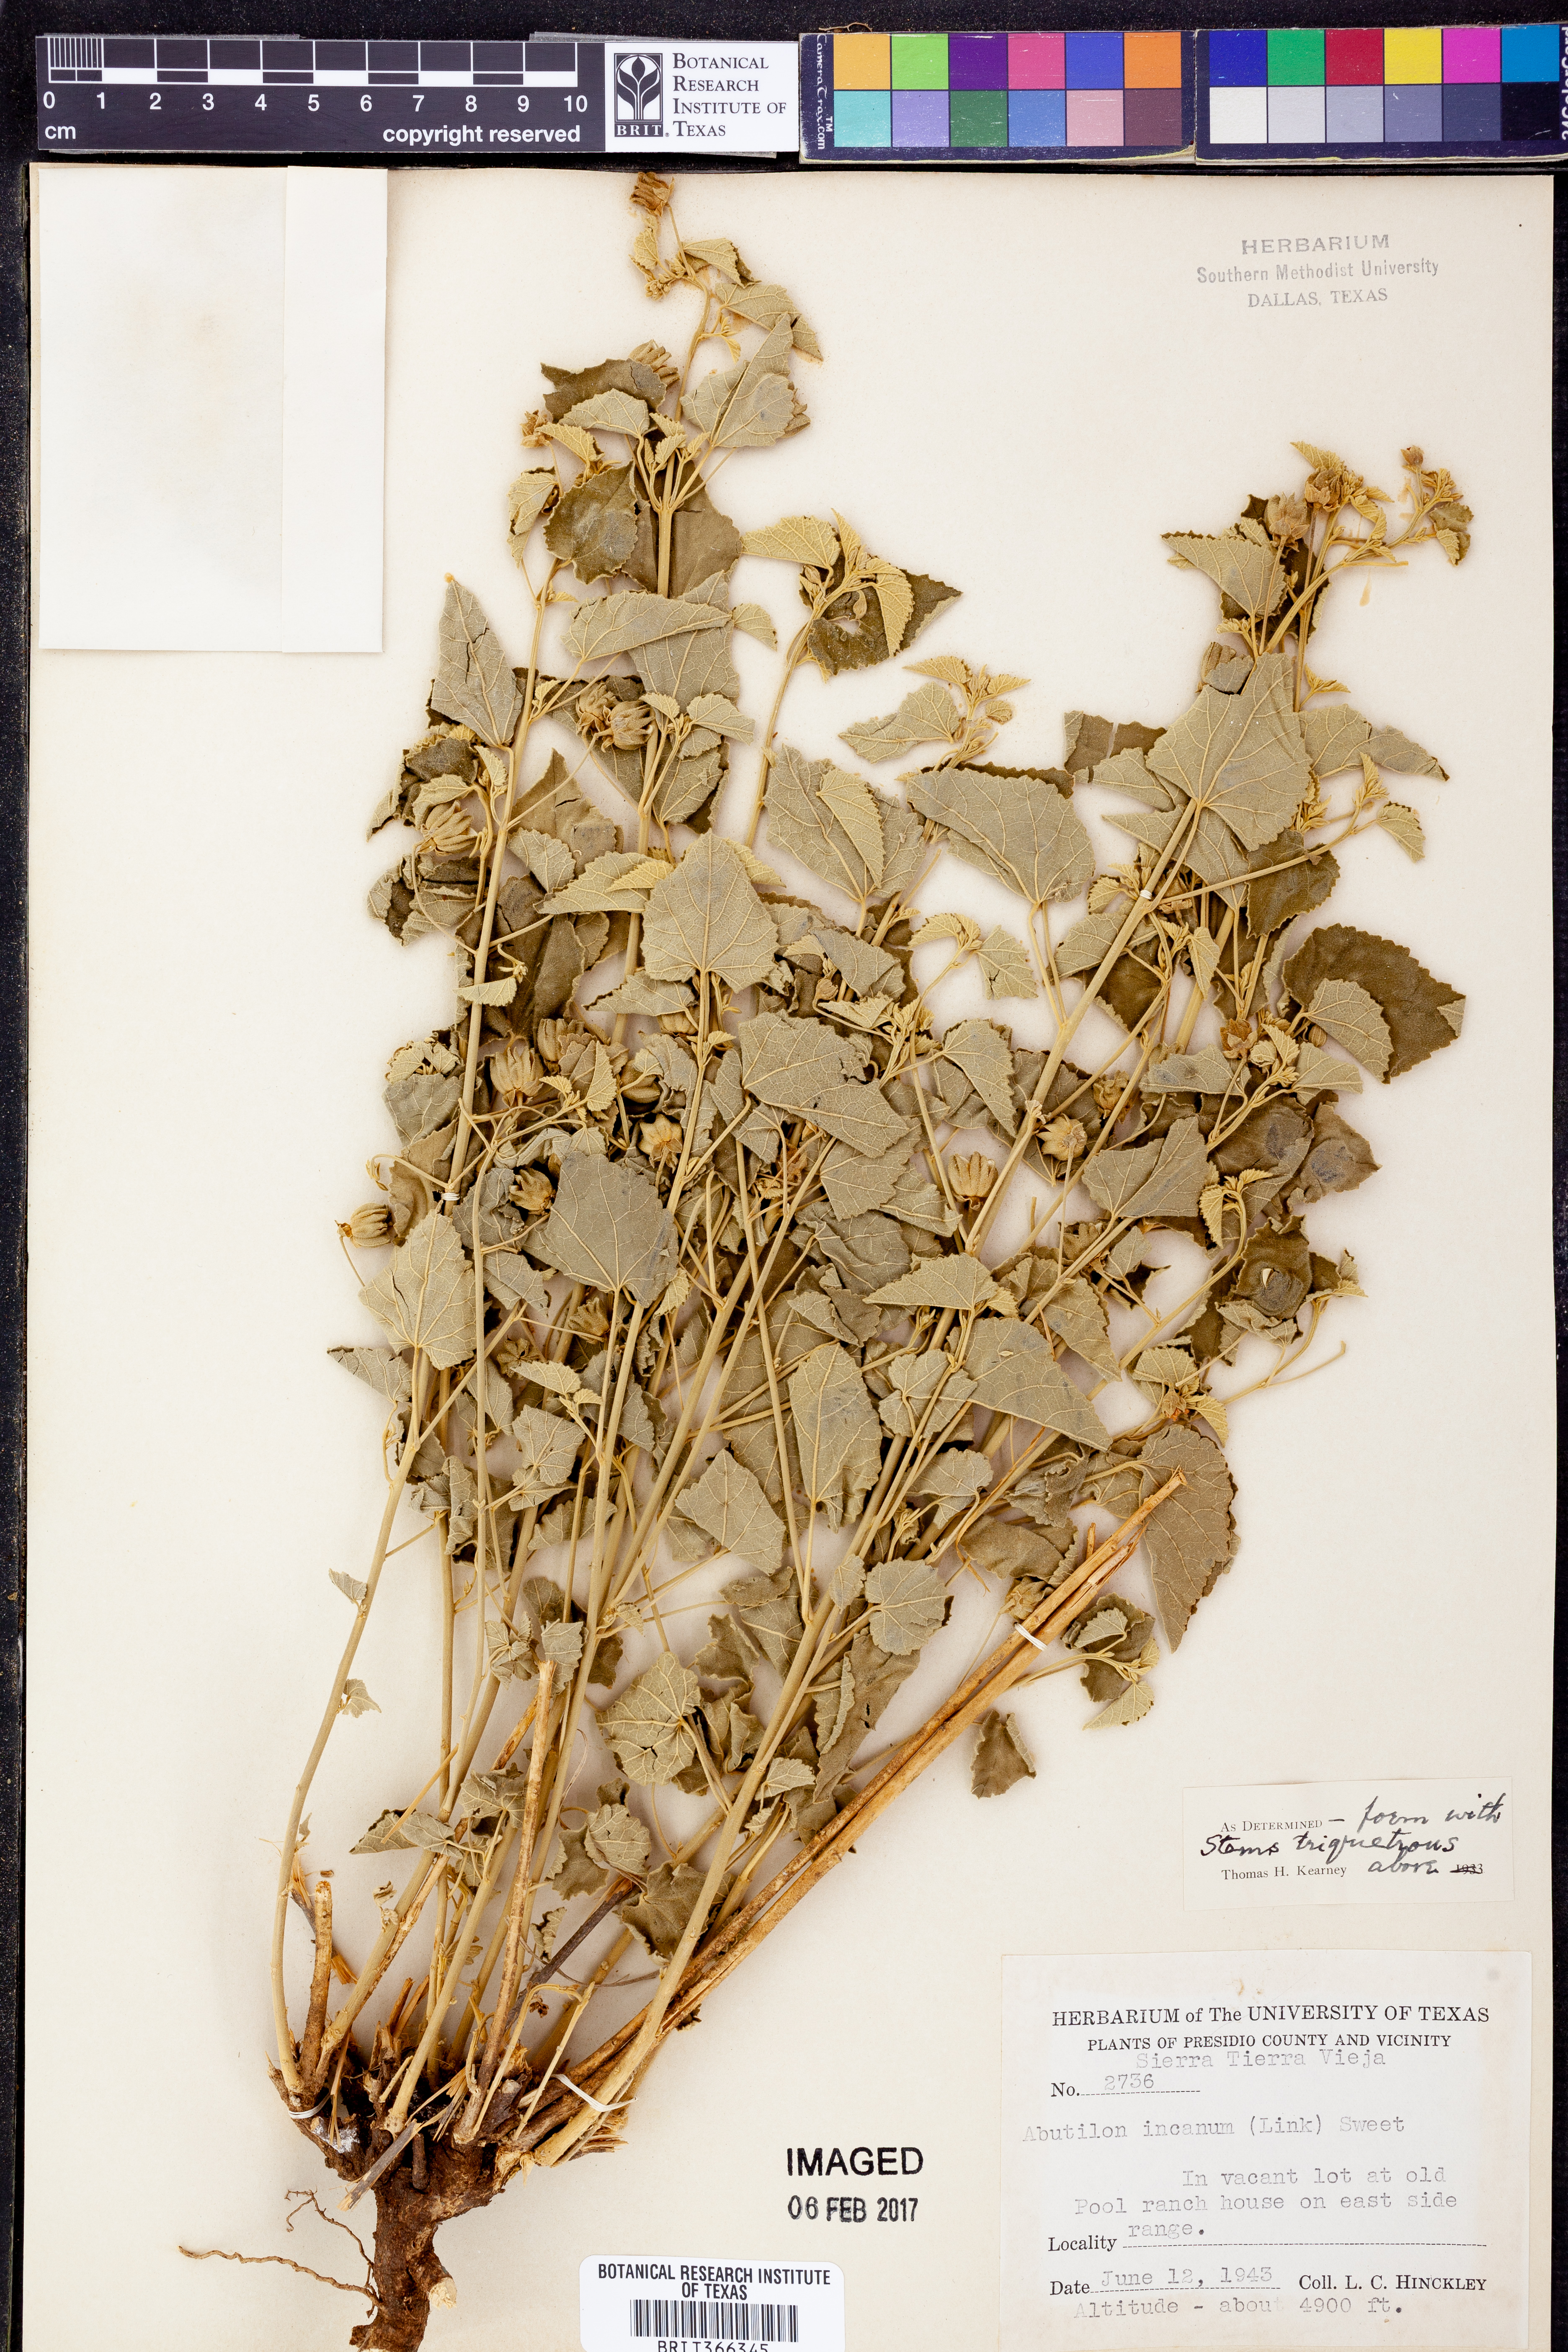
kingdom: Plantae
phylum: Tracheophyta
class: Magnoliopsida
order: Malvales
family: Malvaceae
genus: Abutilon
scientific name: Abutilon incanum
